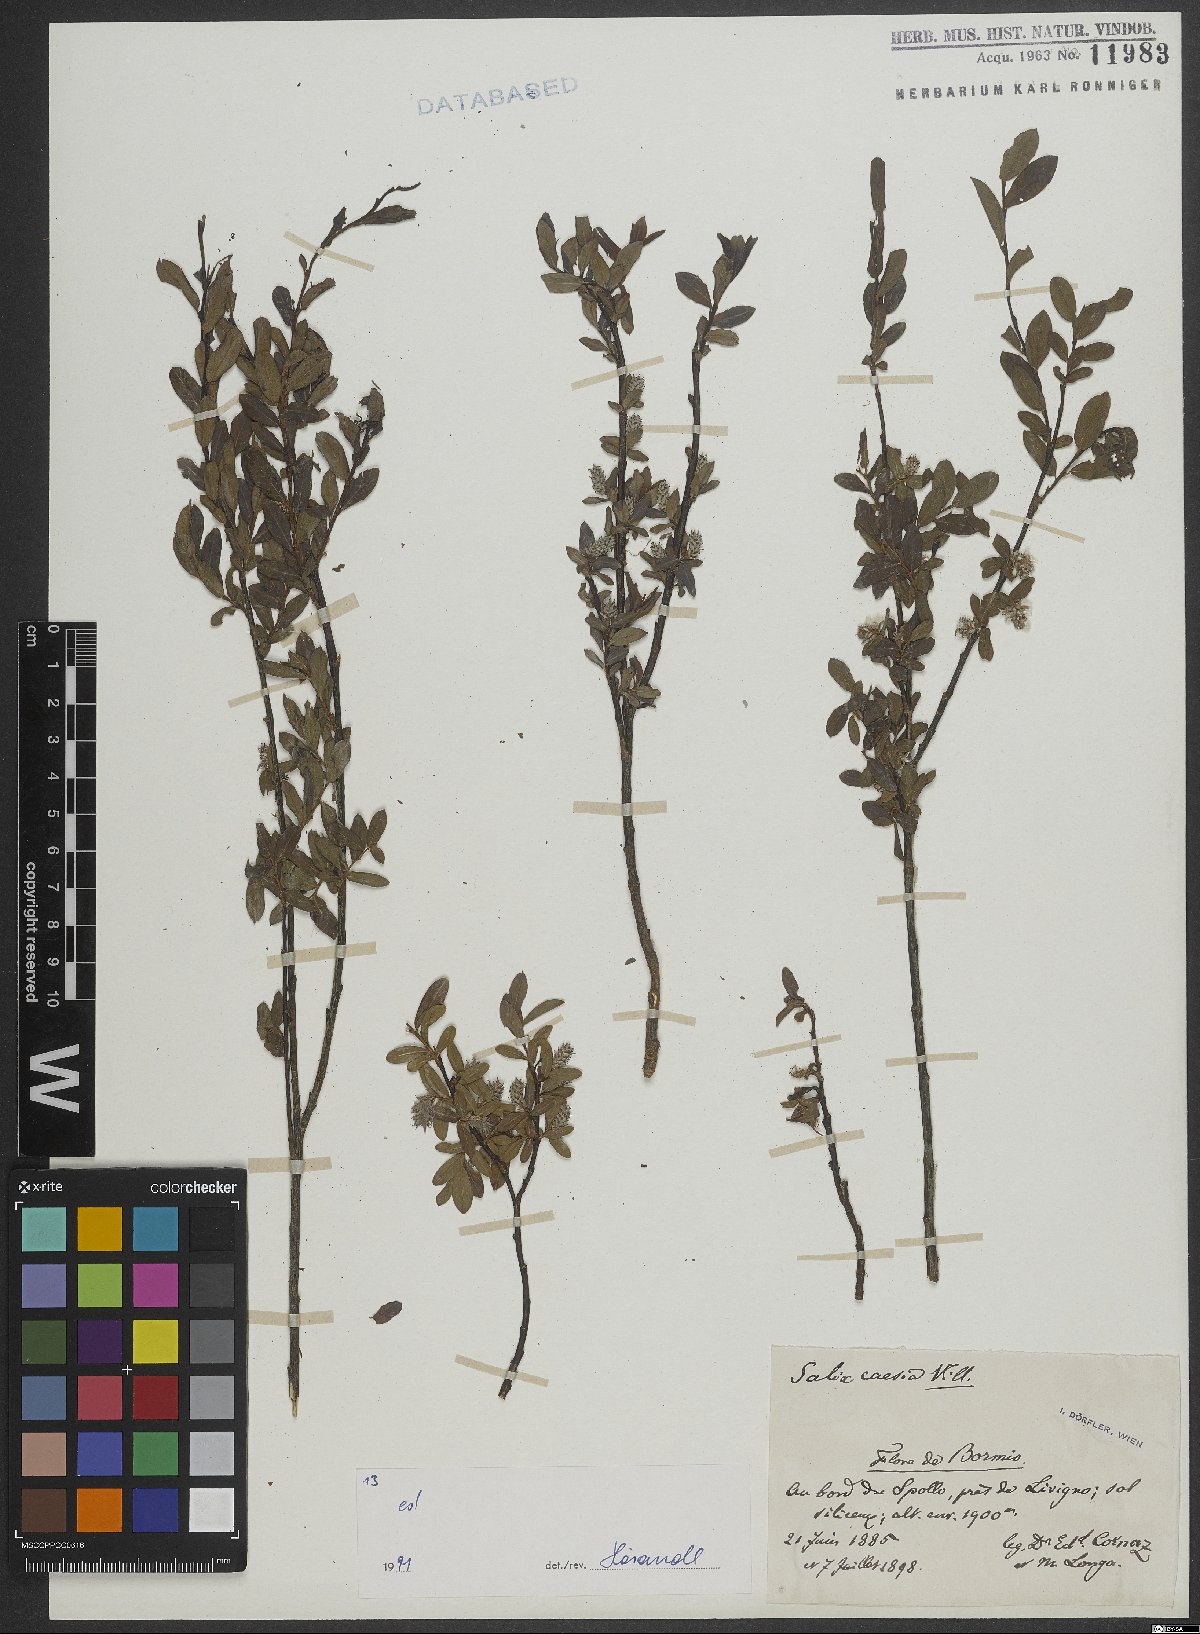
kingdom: Plantae
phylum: Tracheophyta
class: Magnoliopsida
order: Malpighiales
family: Salicaceae
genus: Salix
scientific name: Salix caesia
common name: Blue willow
